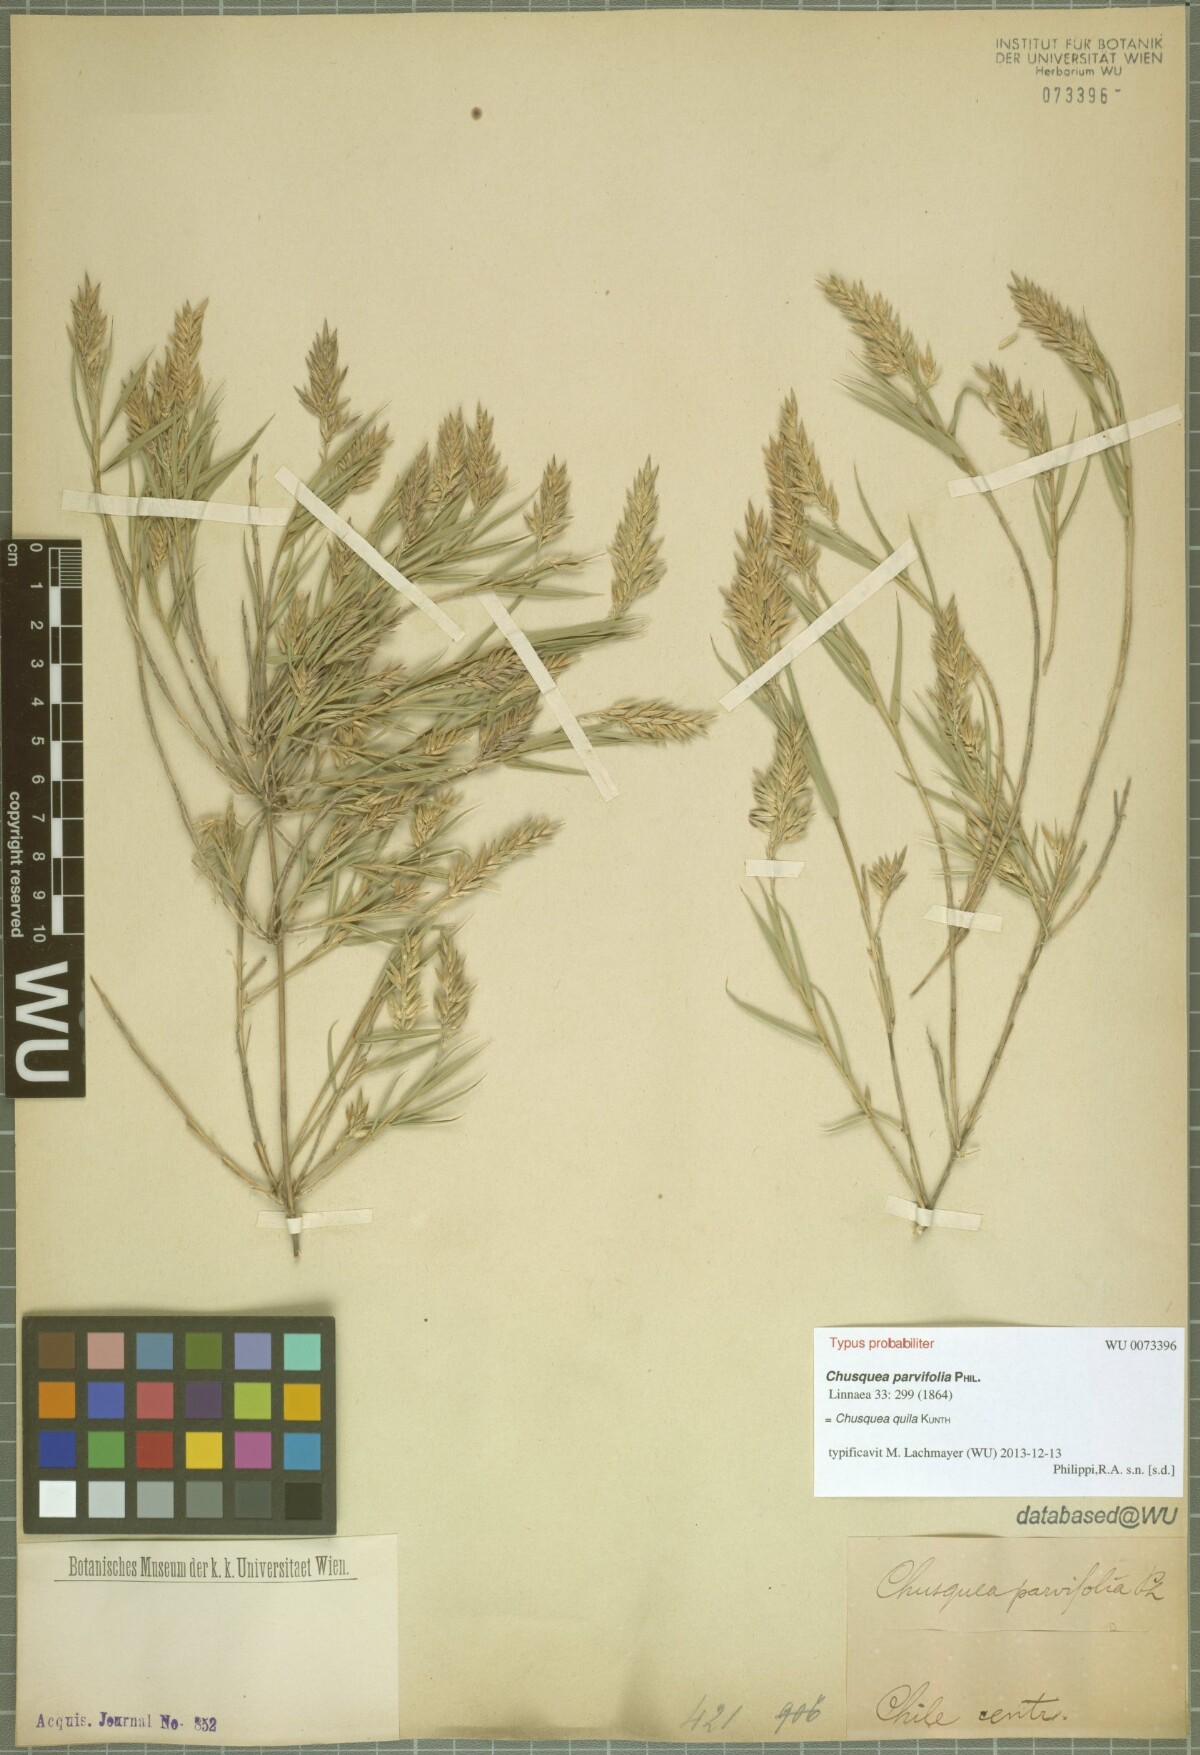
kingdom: Plantae
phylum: Tracheophyta
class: Liliopsida
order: Poales
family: Poaceae
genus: Chusquea
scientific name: Chusquea quila
